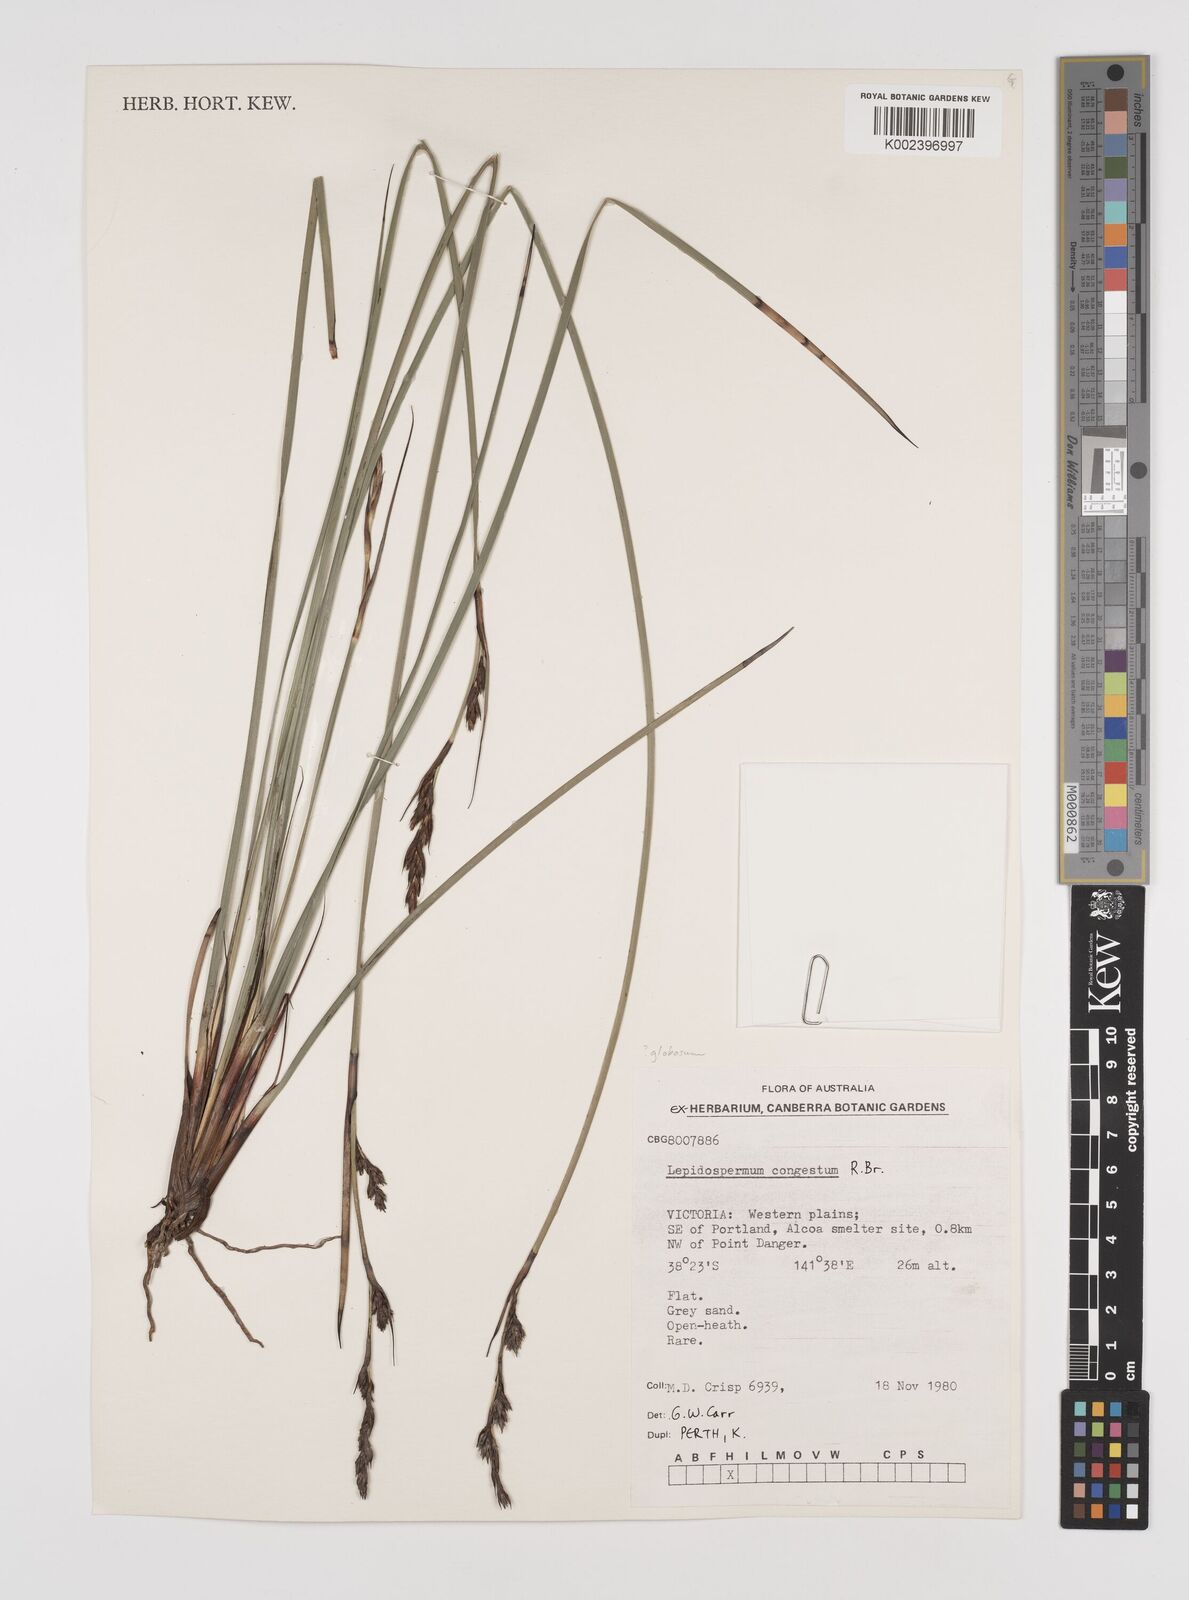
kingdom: Plantae
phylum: Tracheophyta
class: Liliopsida
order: Poales
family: Cyperaceae
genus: Lepidosperma
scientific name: Lepidosperma globosum
